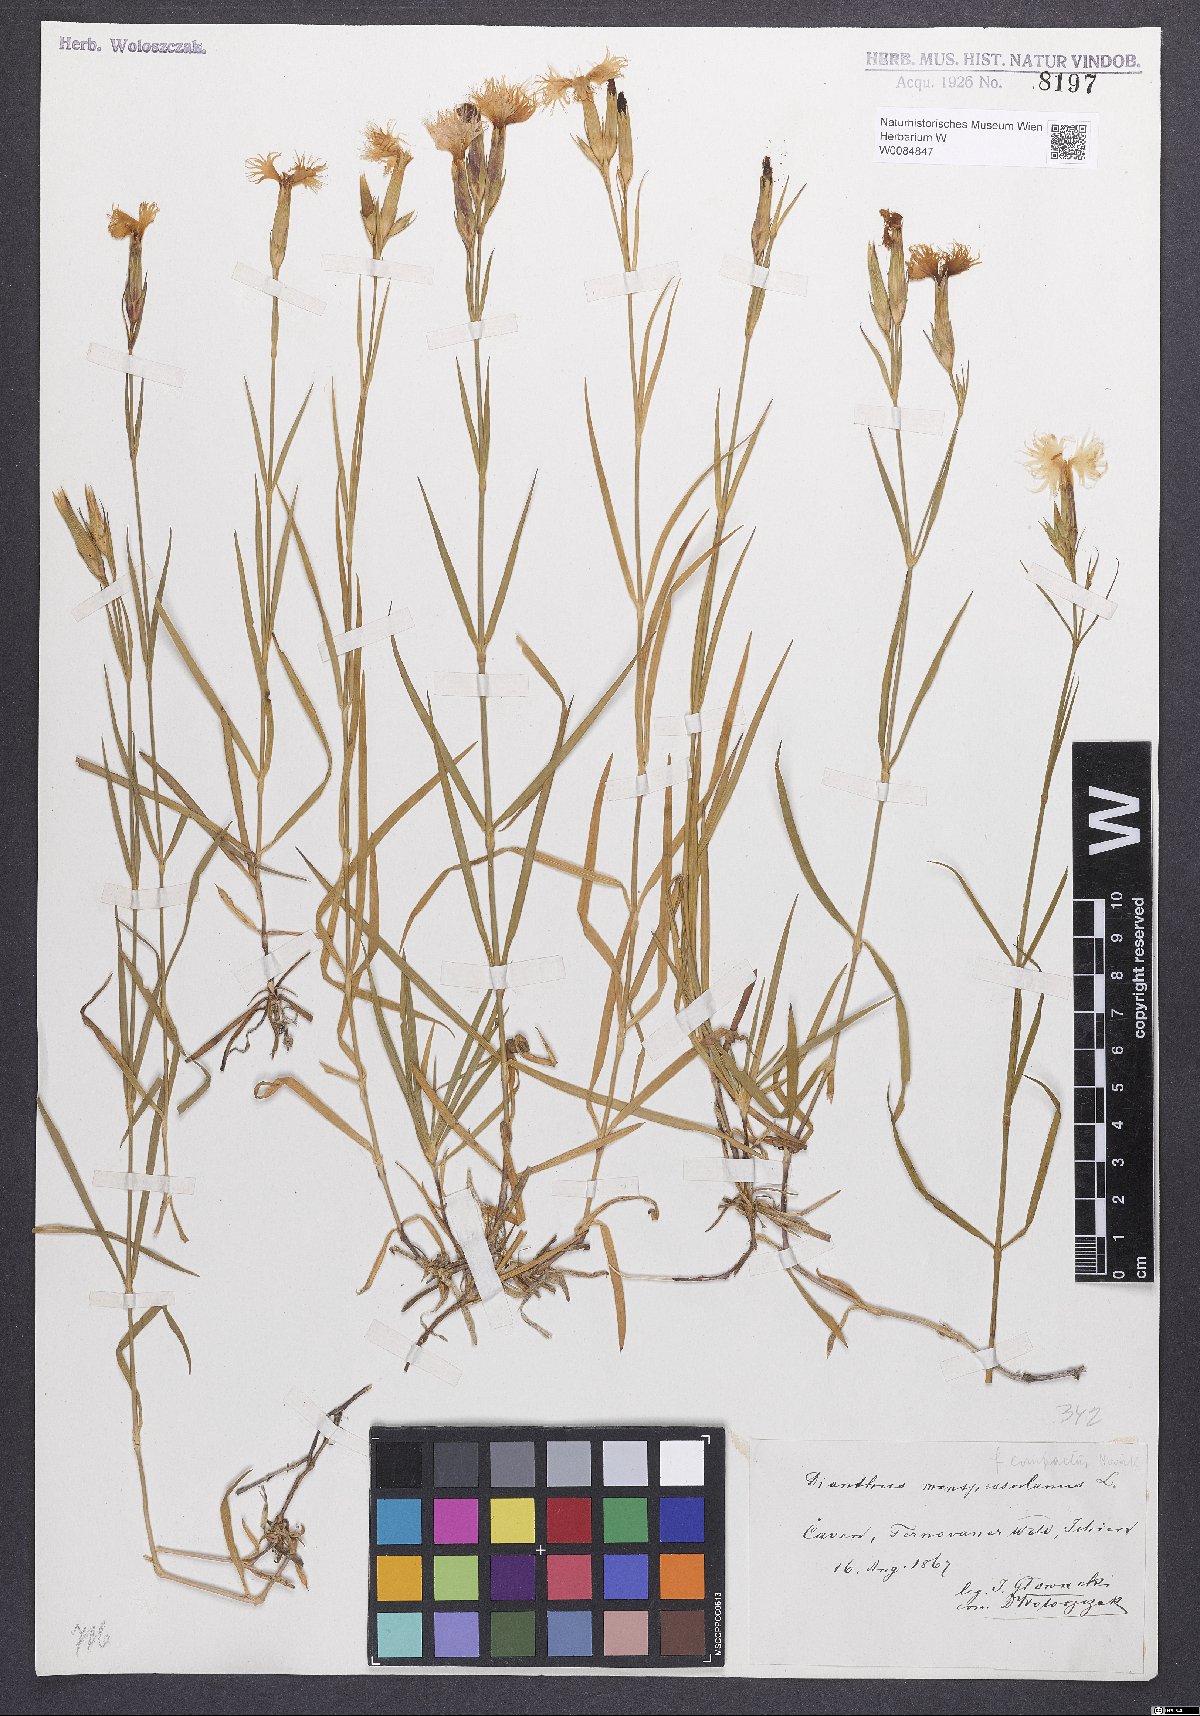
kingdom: Plantae
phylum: Tracheophyta
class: Magnoliopsida
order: Caryophyllales
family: Caryophyllaceae
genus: Dianthus
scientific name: Dianthus hyssopifolius
